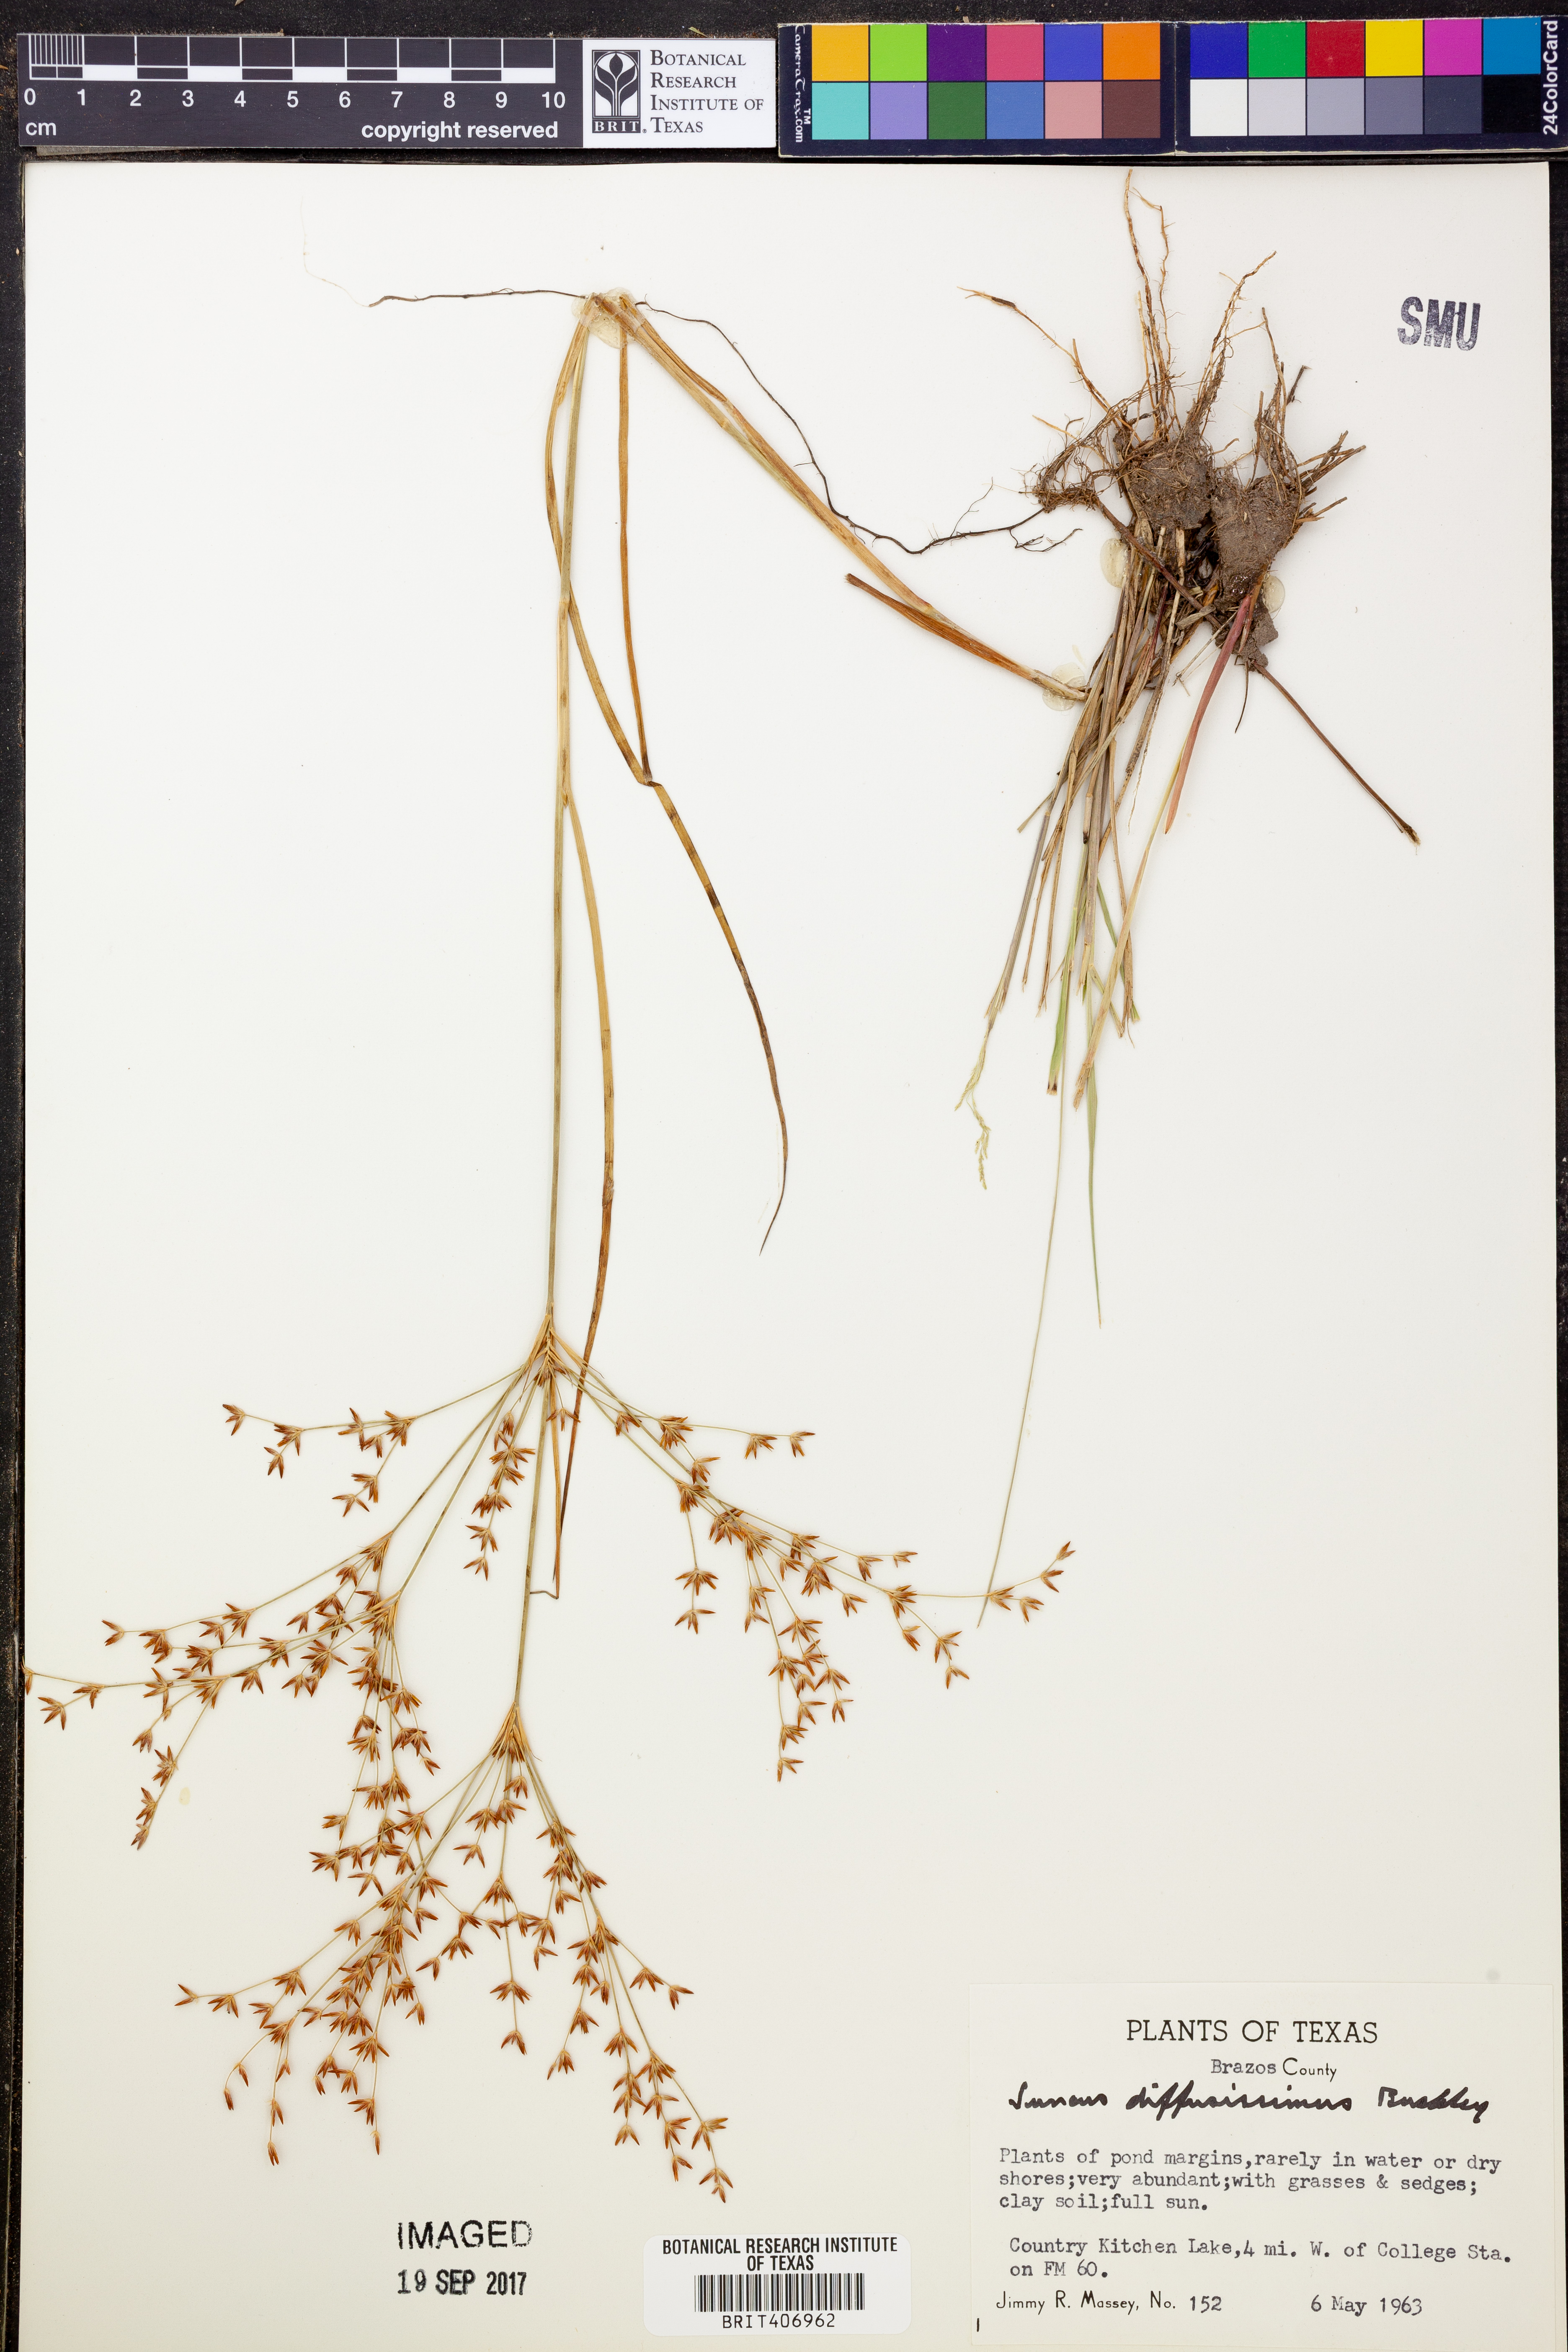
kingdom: Plantae
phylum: Tracheophyta
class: Liliopsida
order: Poales
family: Juncaceae
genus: Juncus
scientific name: Juncus diffusissimus
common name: Slimpod rush
